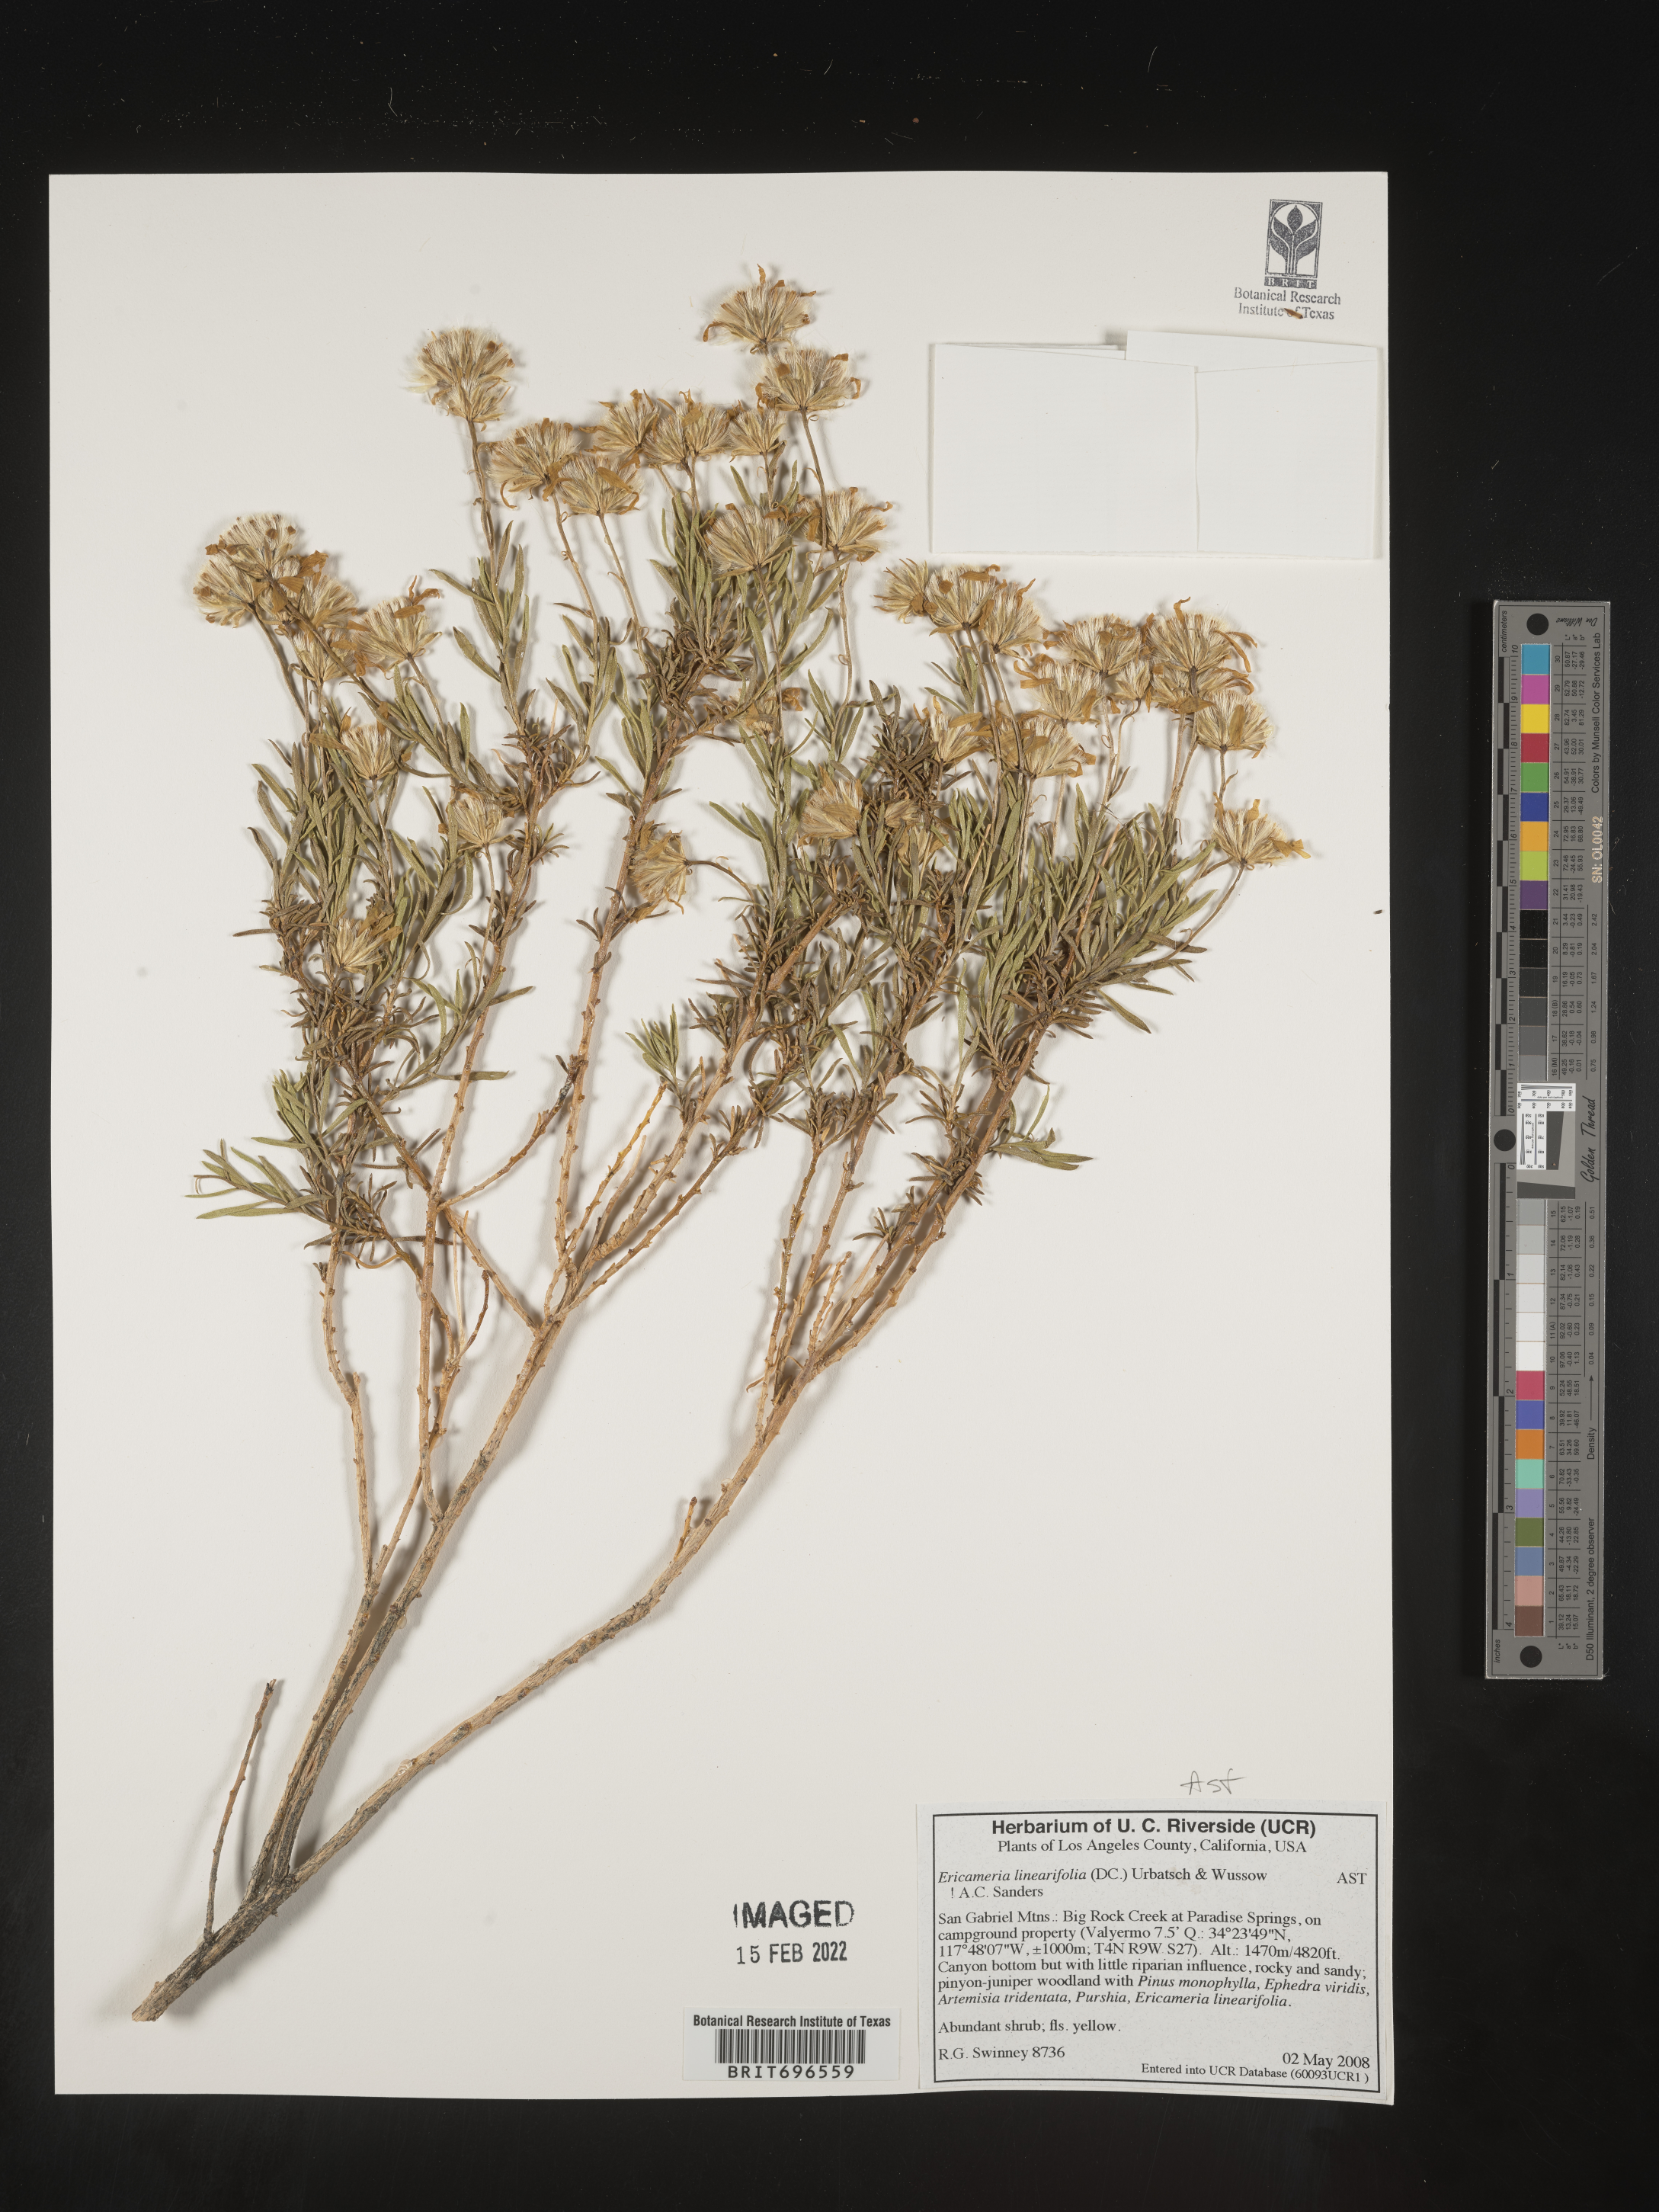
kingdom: Plantae
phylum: Tracheophyta
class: Magnoliopsida
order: Asterales
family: Asteraceae
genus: Ericameria
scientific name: Ericameria linearifolia
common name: Interior goldenbush
